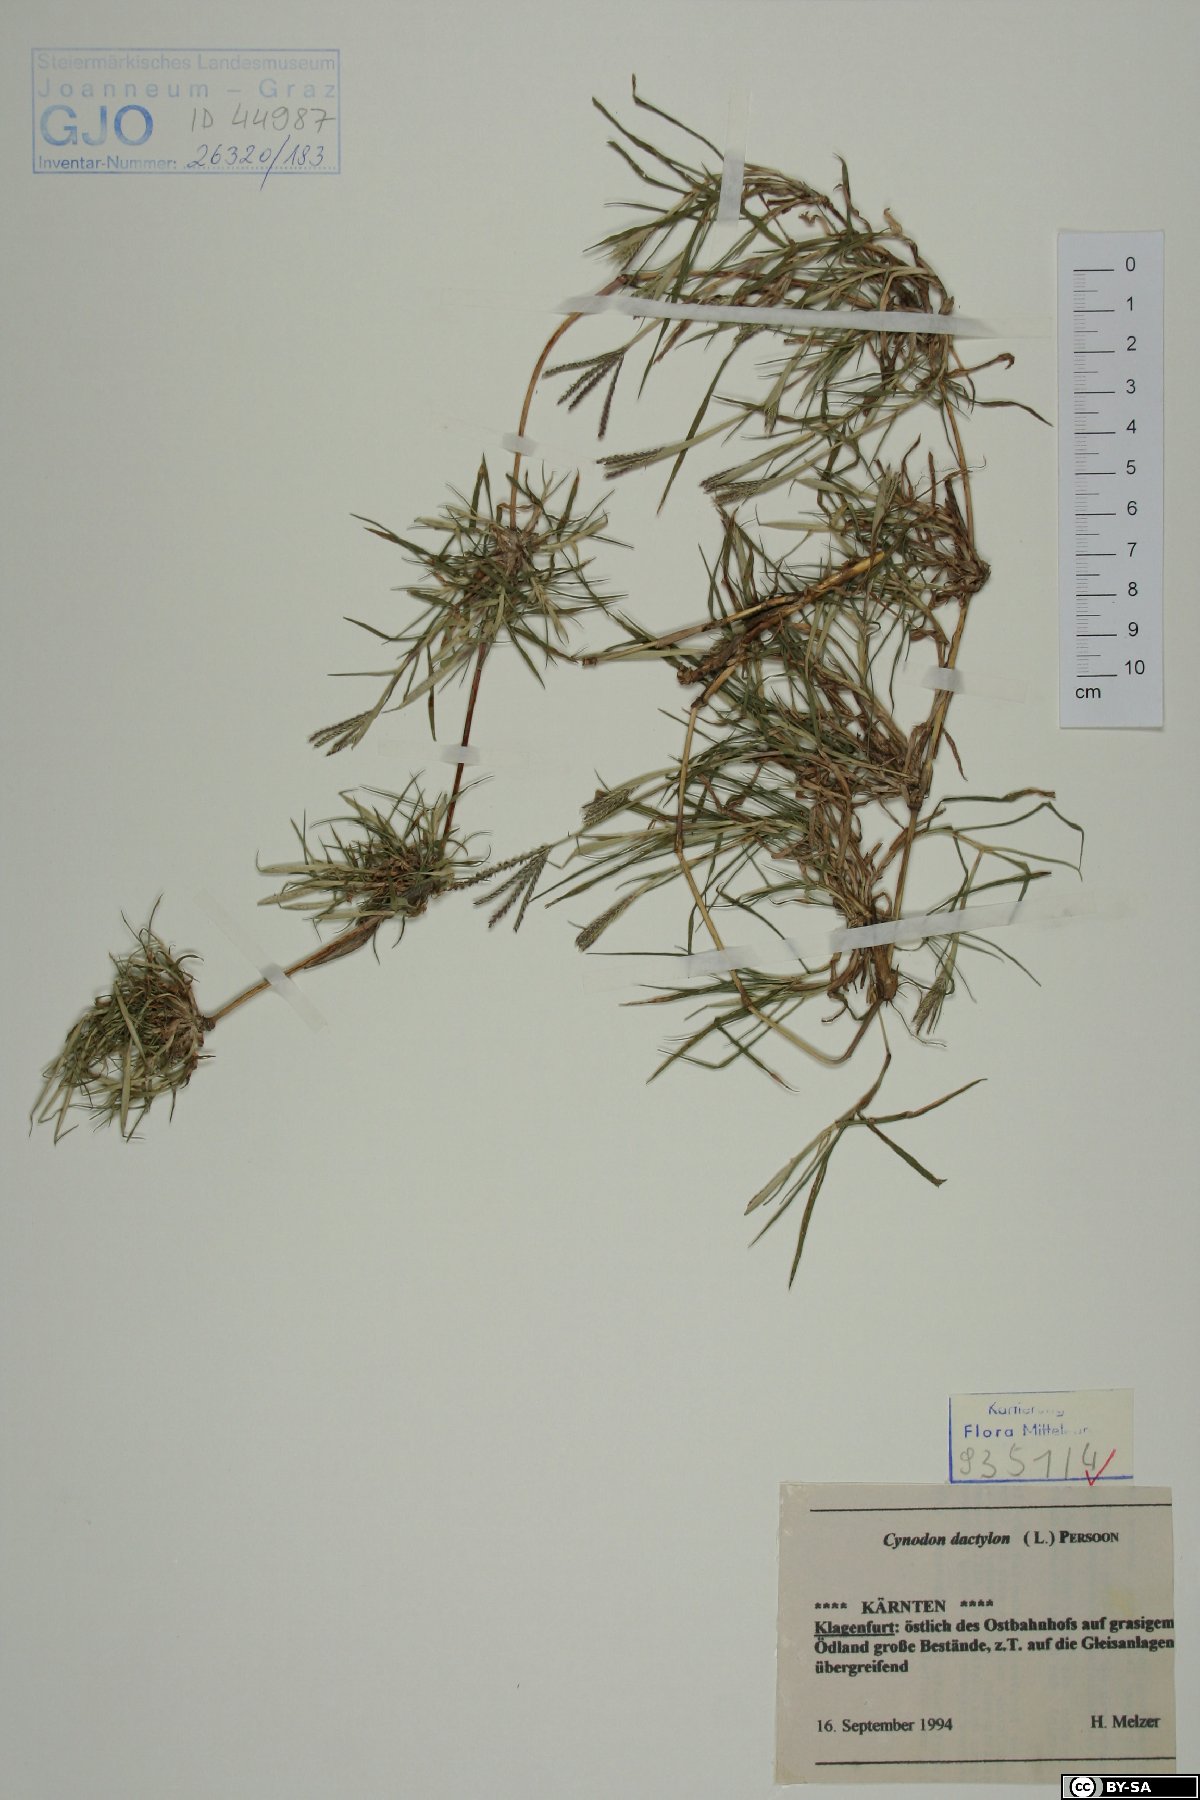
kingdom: Plantae
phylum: Tracheophyta
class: Liliopsida
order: Poales
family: Poaceae
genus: Cynodon
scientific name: Cynodon dactylon
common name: Bermuda grass
